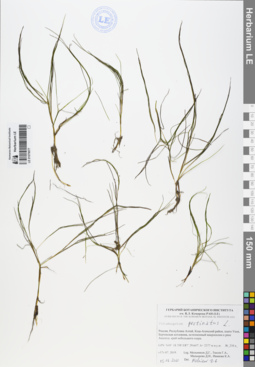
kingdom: Plantae
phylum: Tracheophyta
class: Liliopsida
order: Alismatales
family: Potamogetonaceae
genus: Stuckenia
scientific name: Stuckenia pectinata
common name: Sago pondweed
